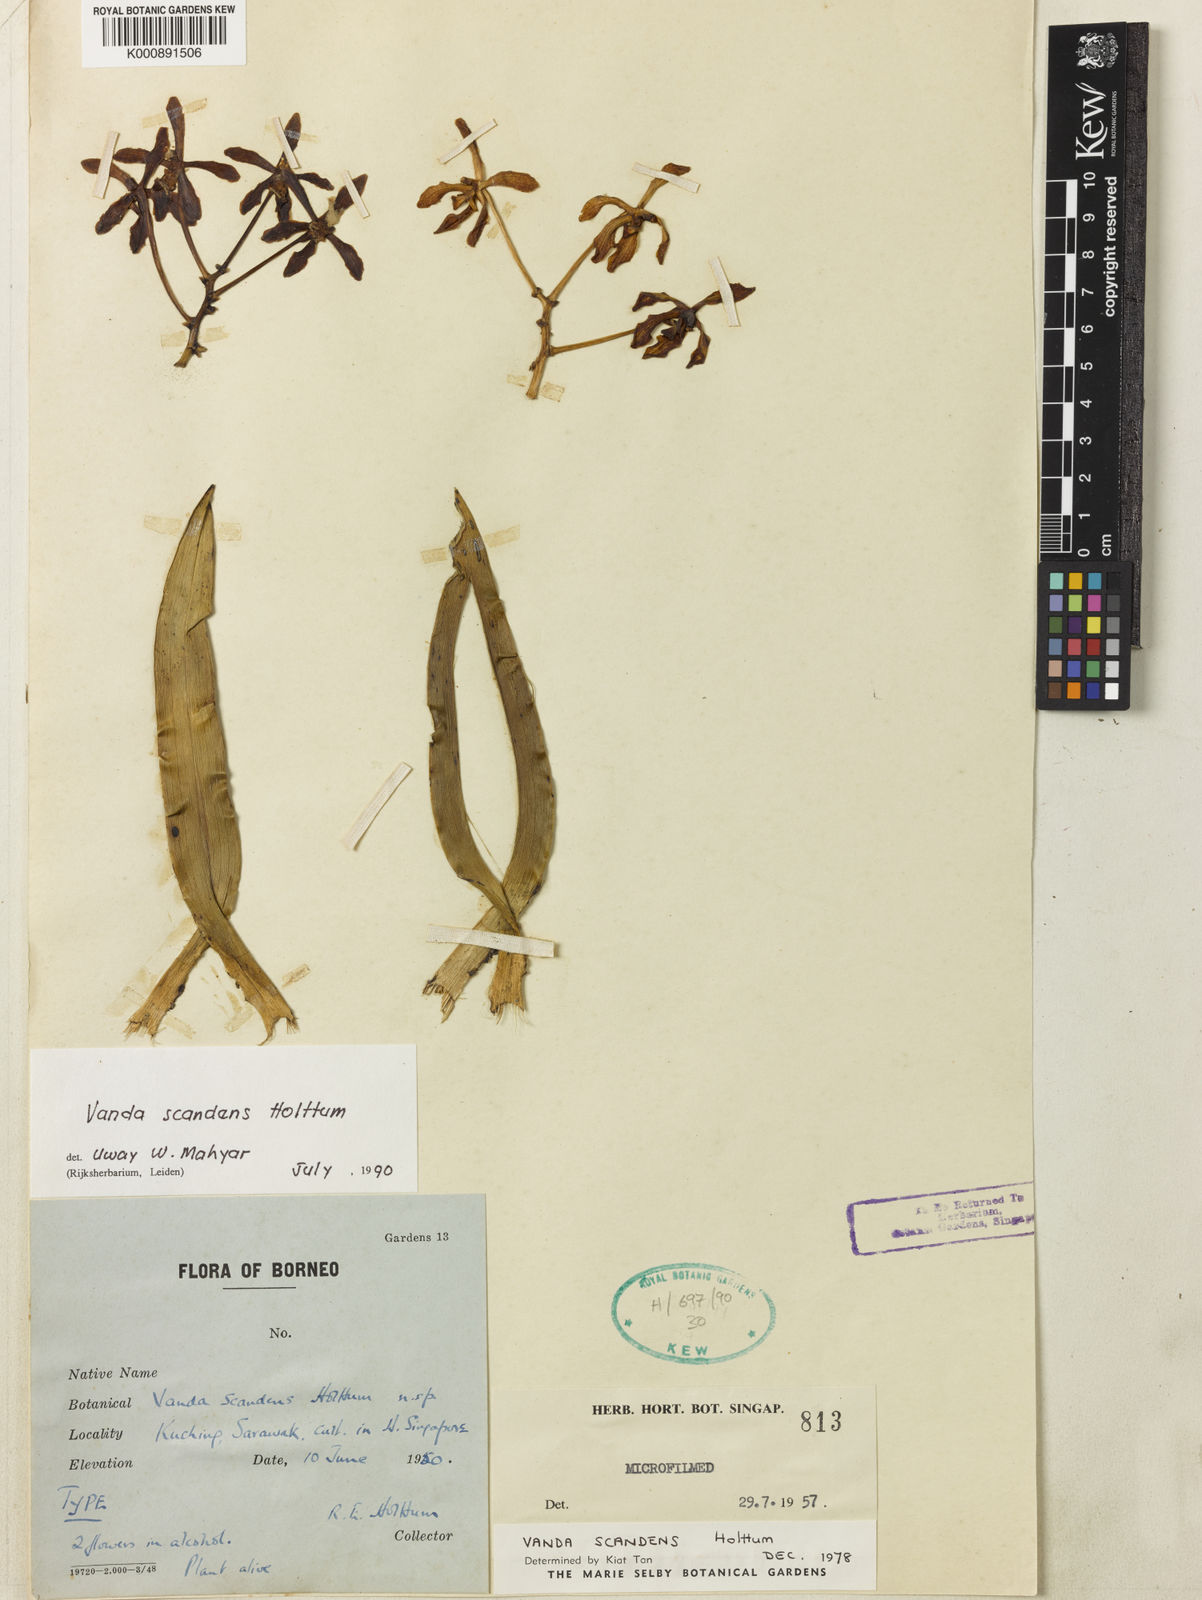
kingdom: Plantae
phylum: Tracheophyta
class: Liliopsida
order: Asparagales
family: Orchidaceae
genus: Vanda
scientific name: Vanda scandens
